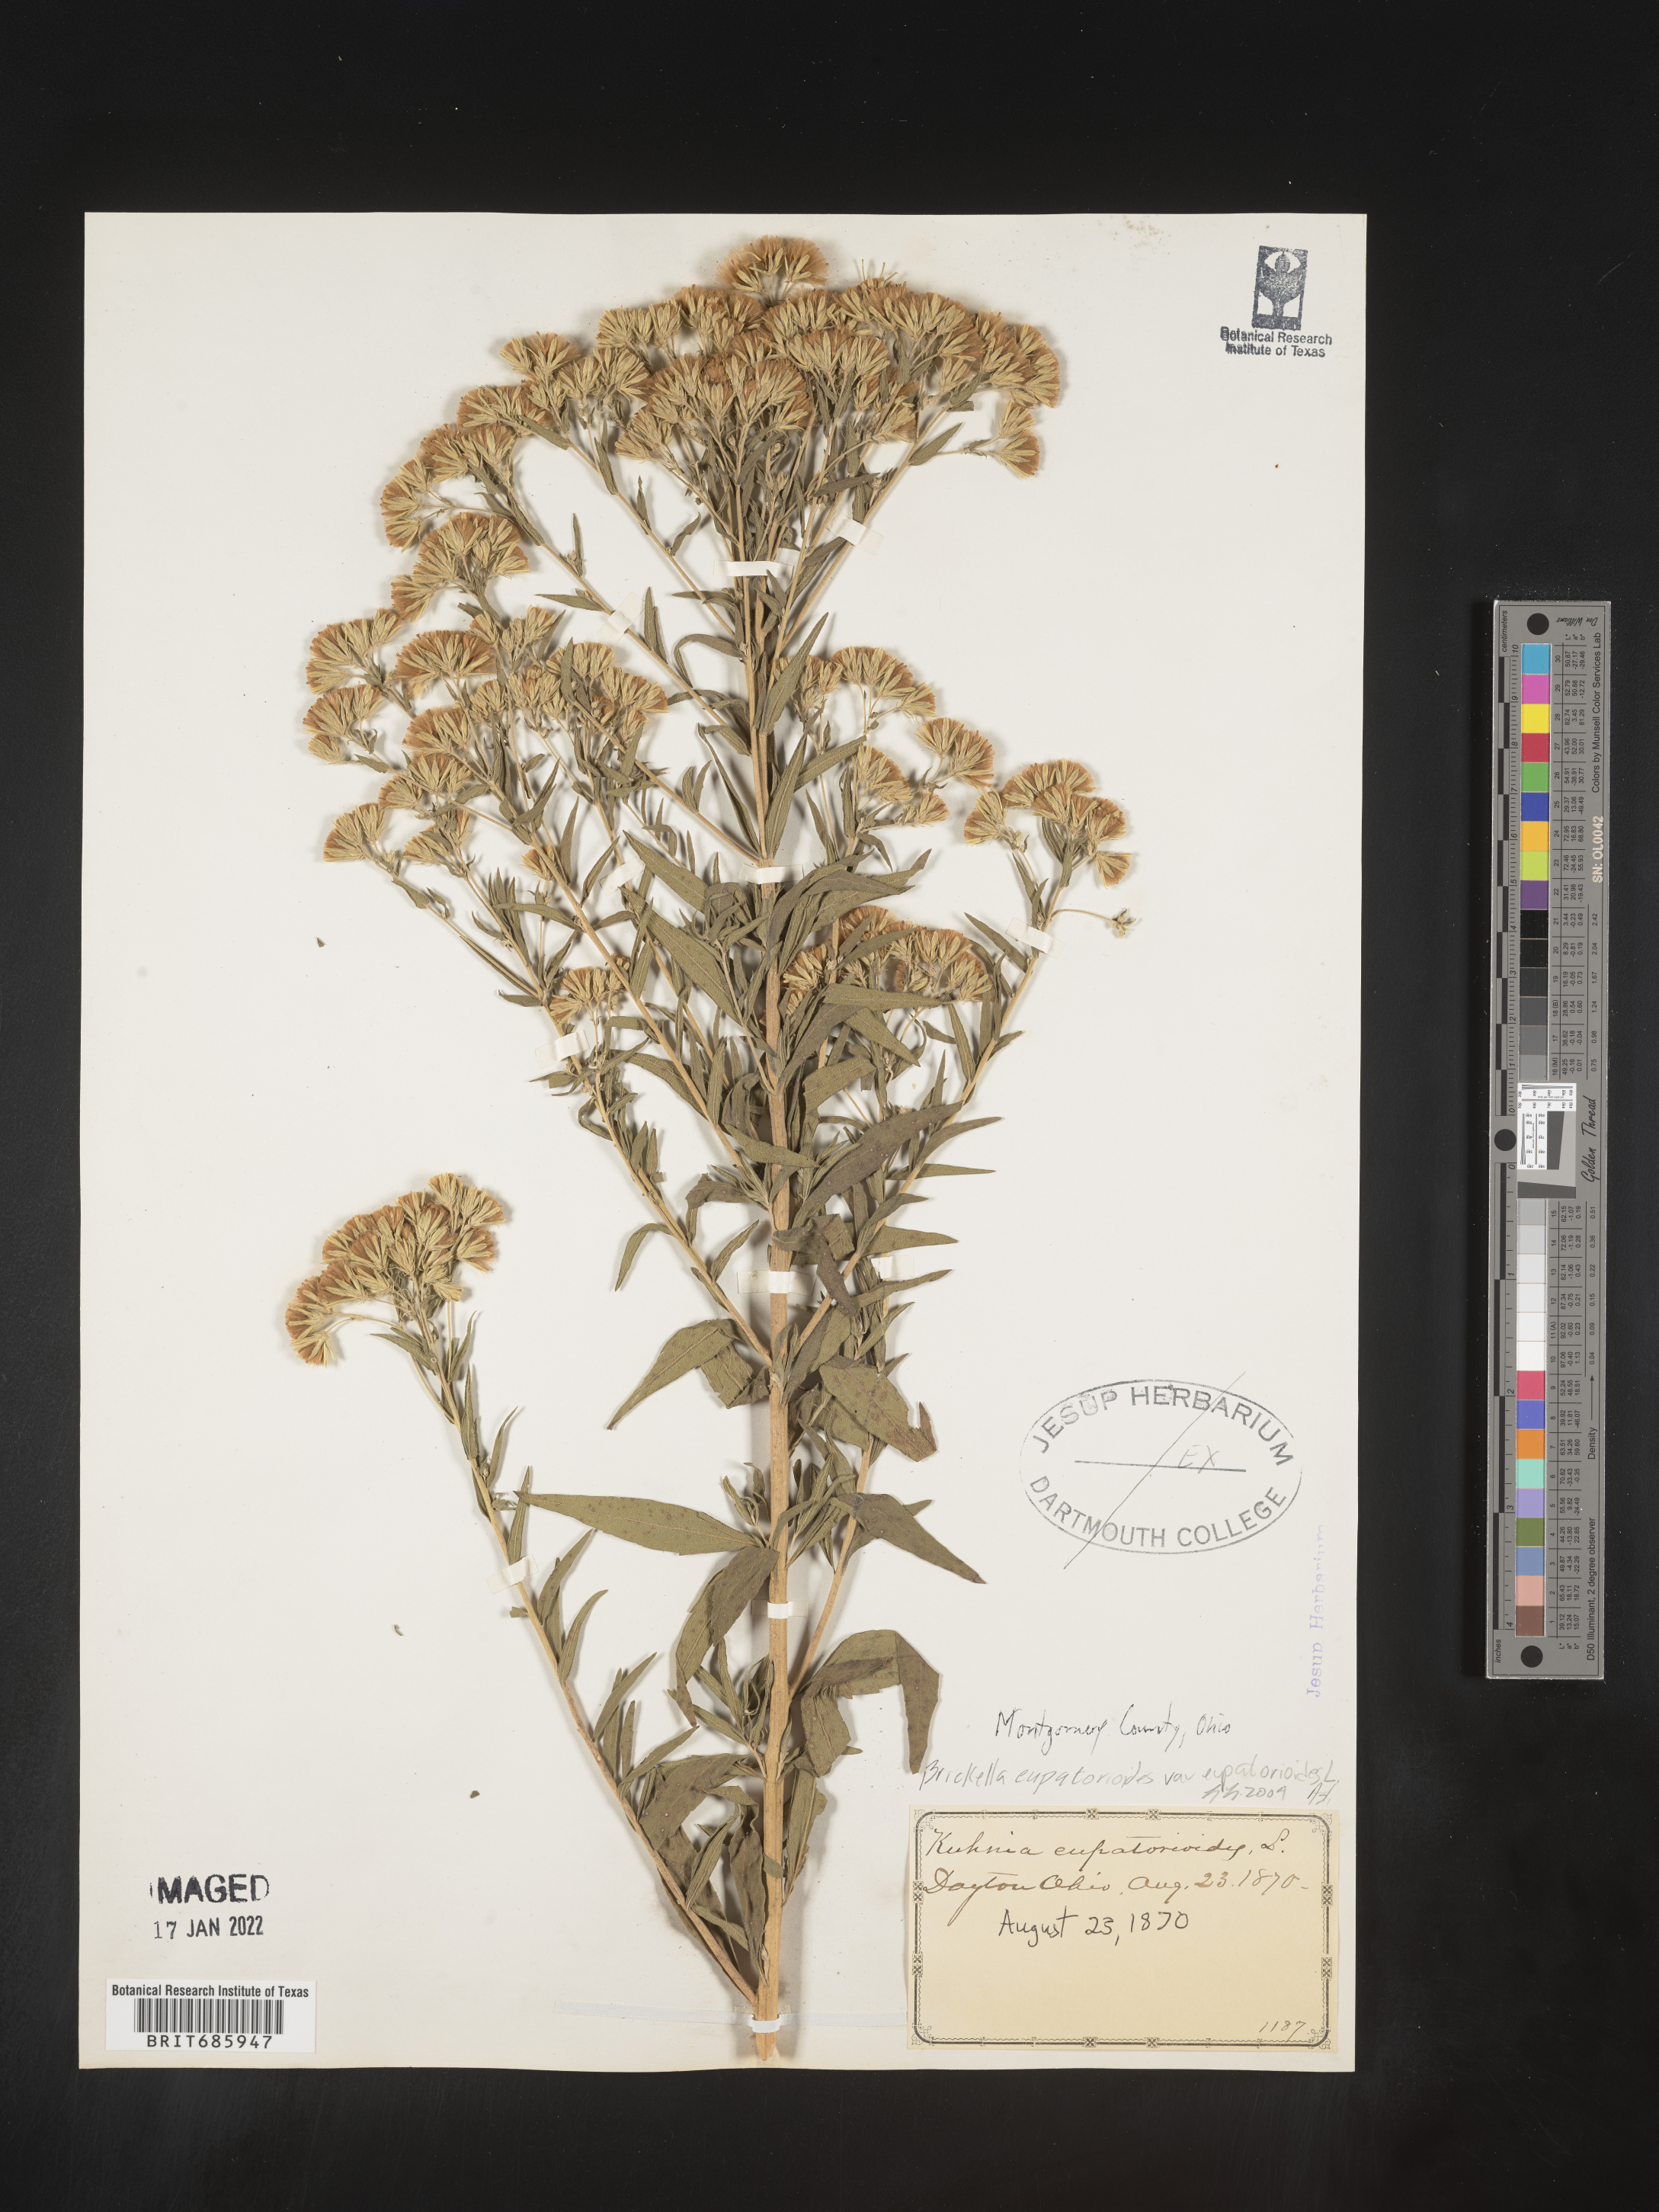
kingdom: Plantae
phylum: Tracheophyta
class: Magnoliopsida
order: Asterales
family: Asteraceae
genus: Brickellia
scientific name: Brickellia eupatorioides
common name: False boneset
